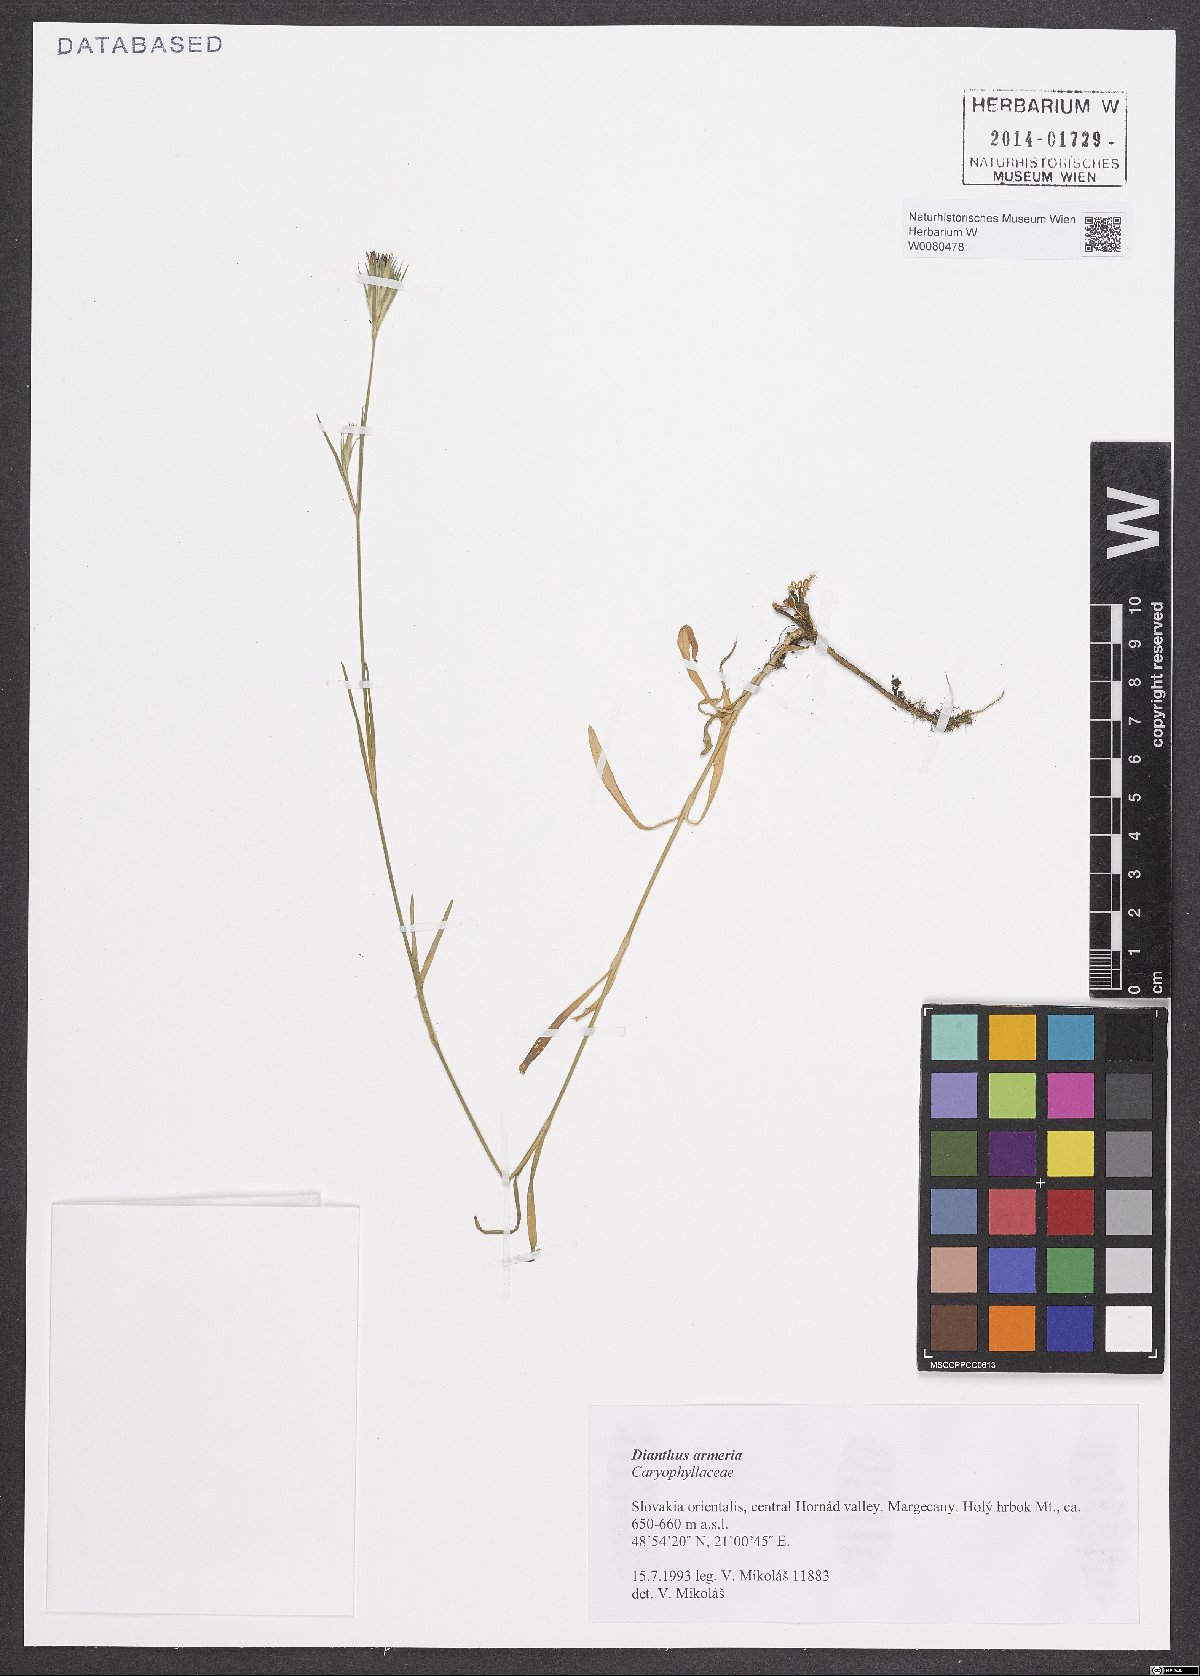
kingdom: Plantae
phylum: Tracheophyta
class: Magnoliopsida
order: Caryophyllales
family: Caryophyllaceae
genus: Dianthus
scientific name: Dianthus armeria
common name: Deptford pink
